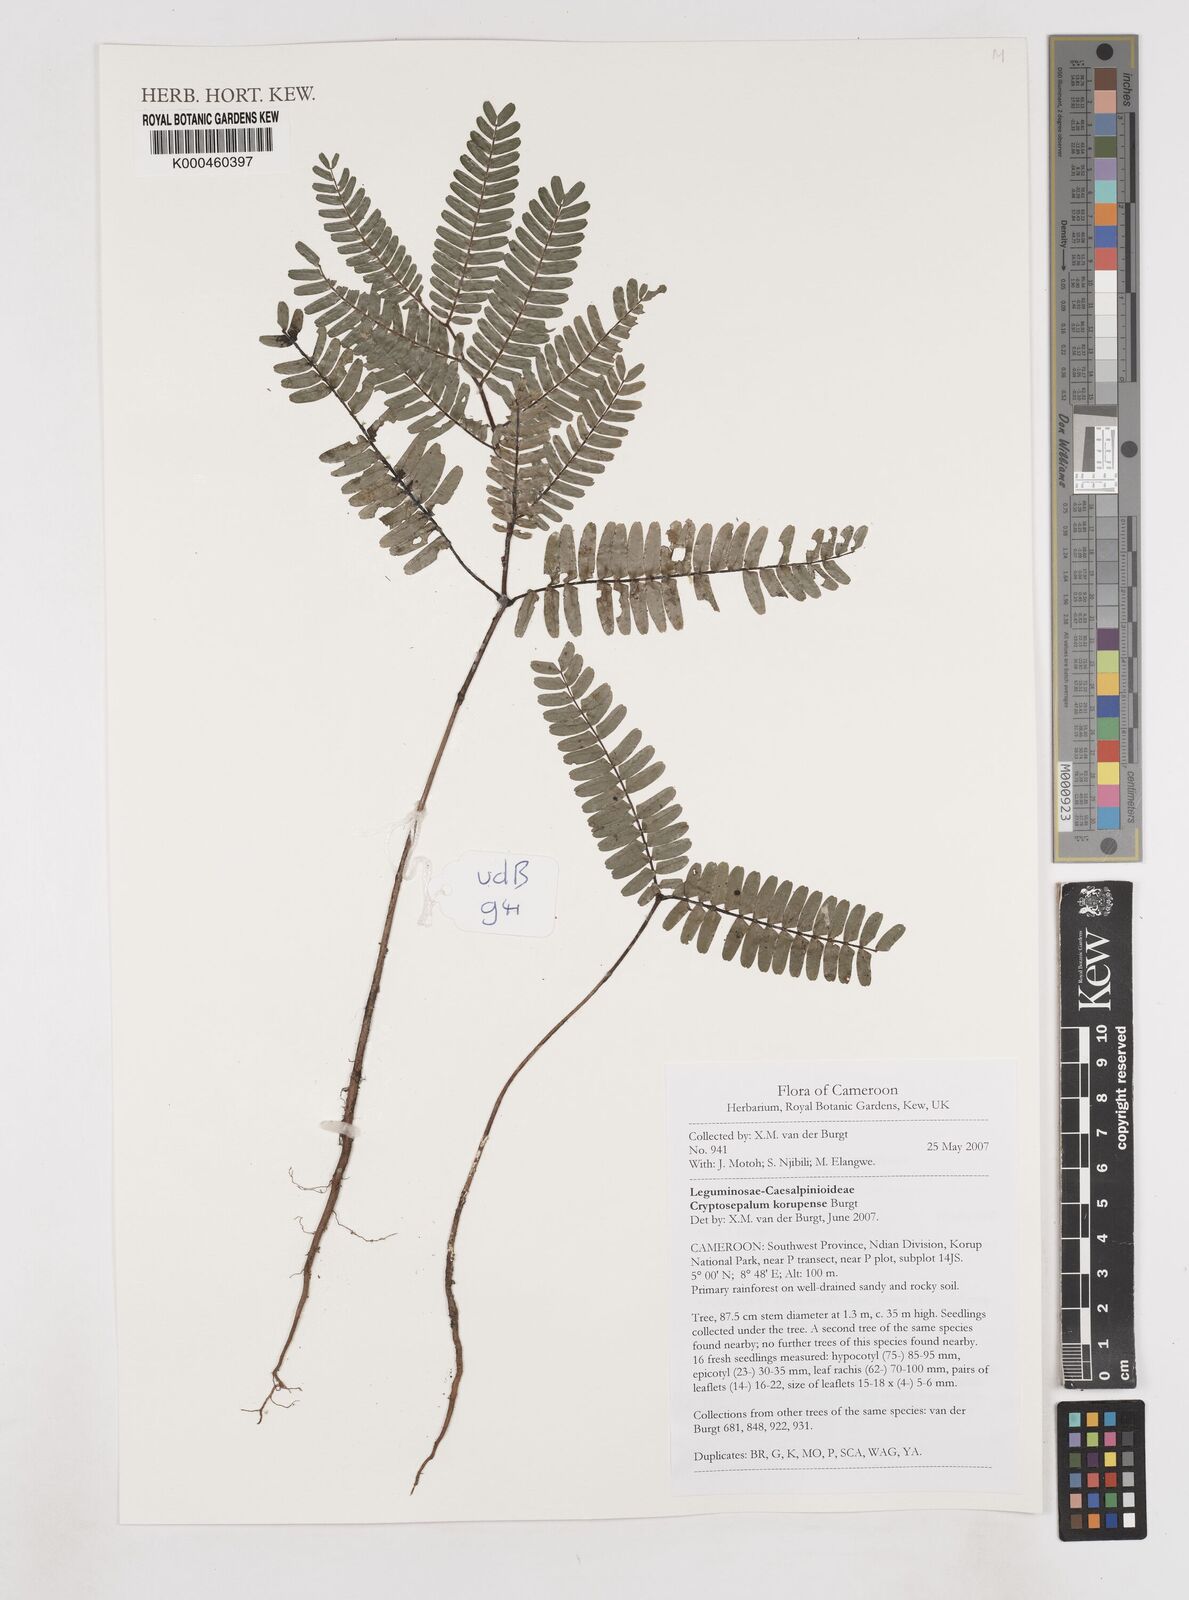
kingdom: Plantae
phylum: Tracheophyta
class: Magnoliopsida
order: Fabales
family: Fabaceae
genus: Cryptosepalum
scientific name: Cryptosepalum korupense
